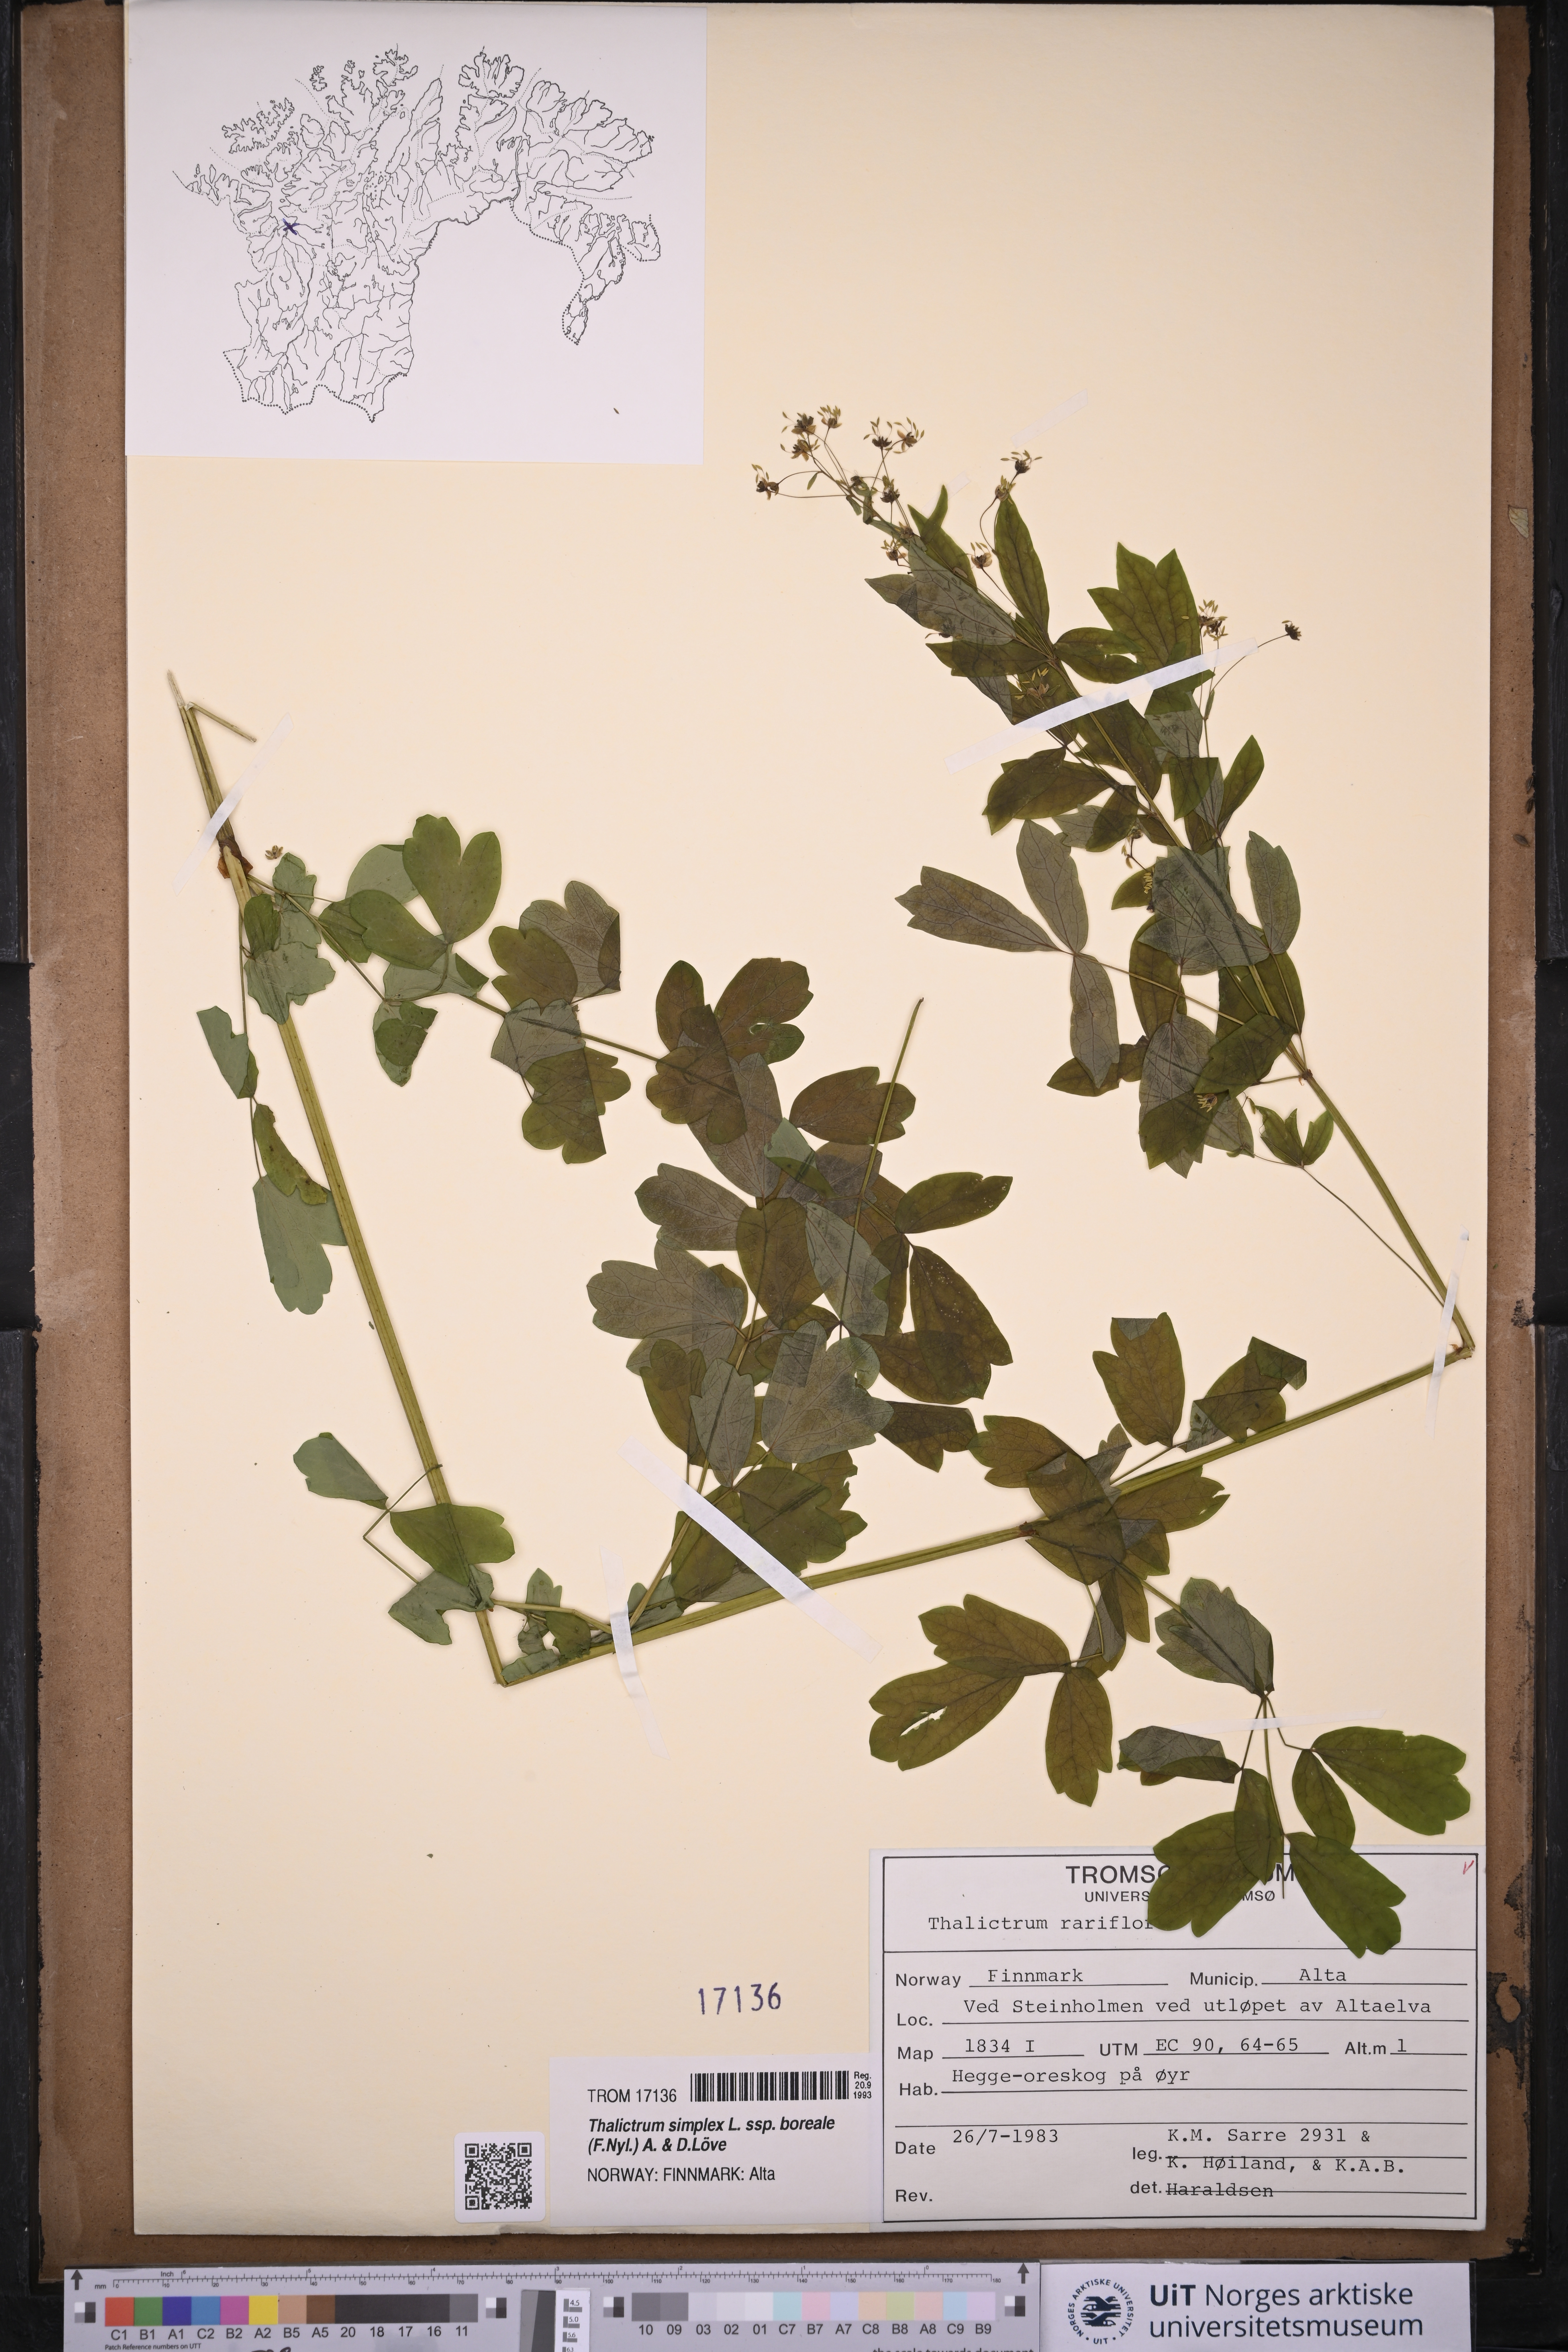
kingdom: Plantae
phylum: Tracheophyta
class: Magnoliopsida
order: Ranunculales
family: Ranunculaceae
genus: Thalictrum
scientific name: Thalictrum simplex
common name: Small meadow-rue
